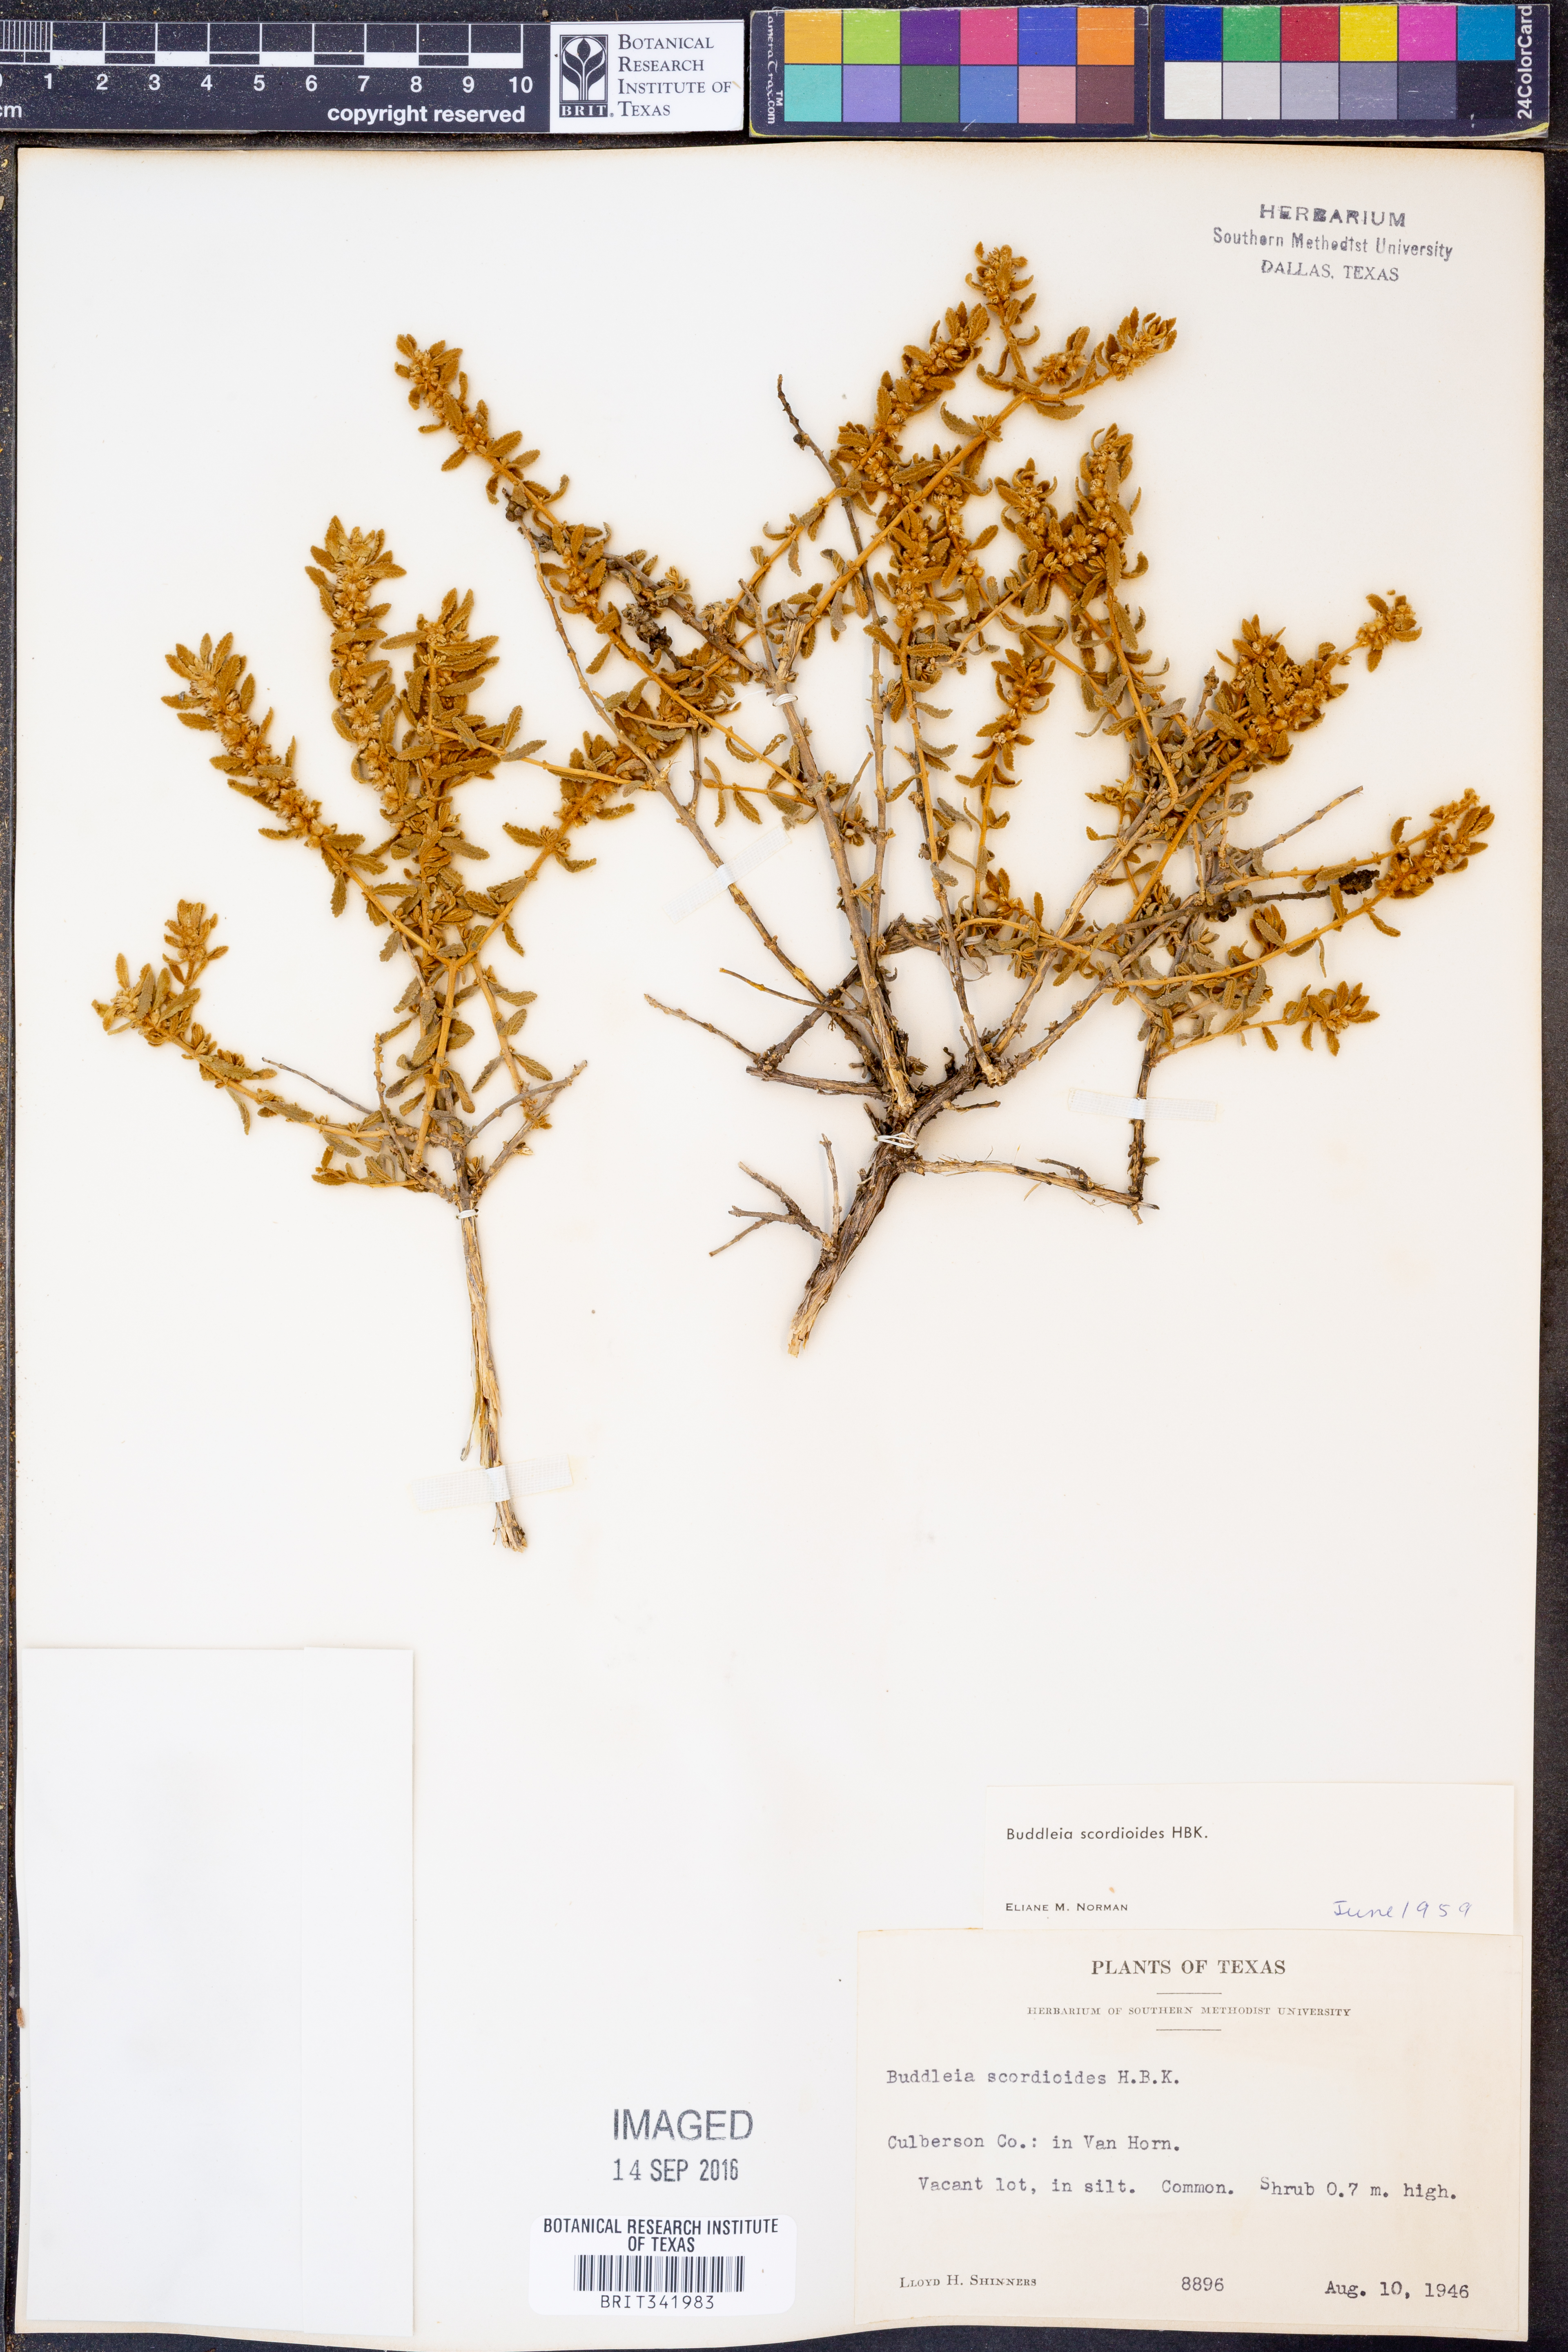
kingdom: Plantae
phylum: Tracheophyta
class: Magnoliopsida
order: Lamiales
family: Scrophulariaceae
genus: Buddleja
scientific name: Buddleja scordioides
